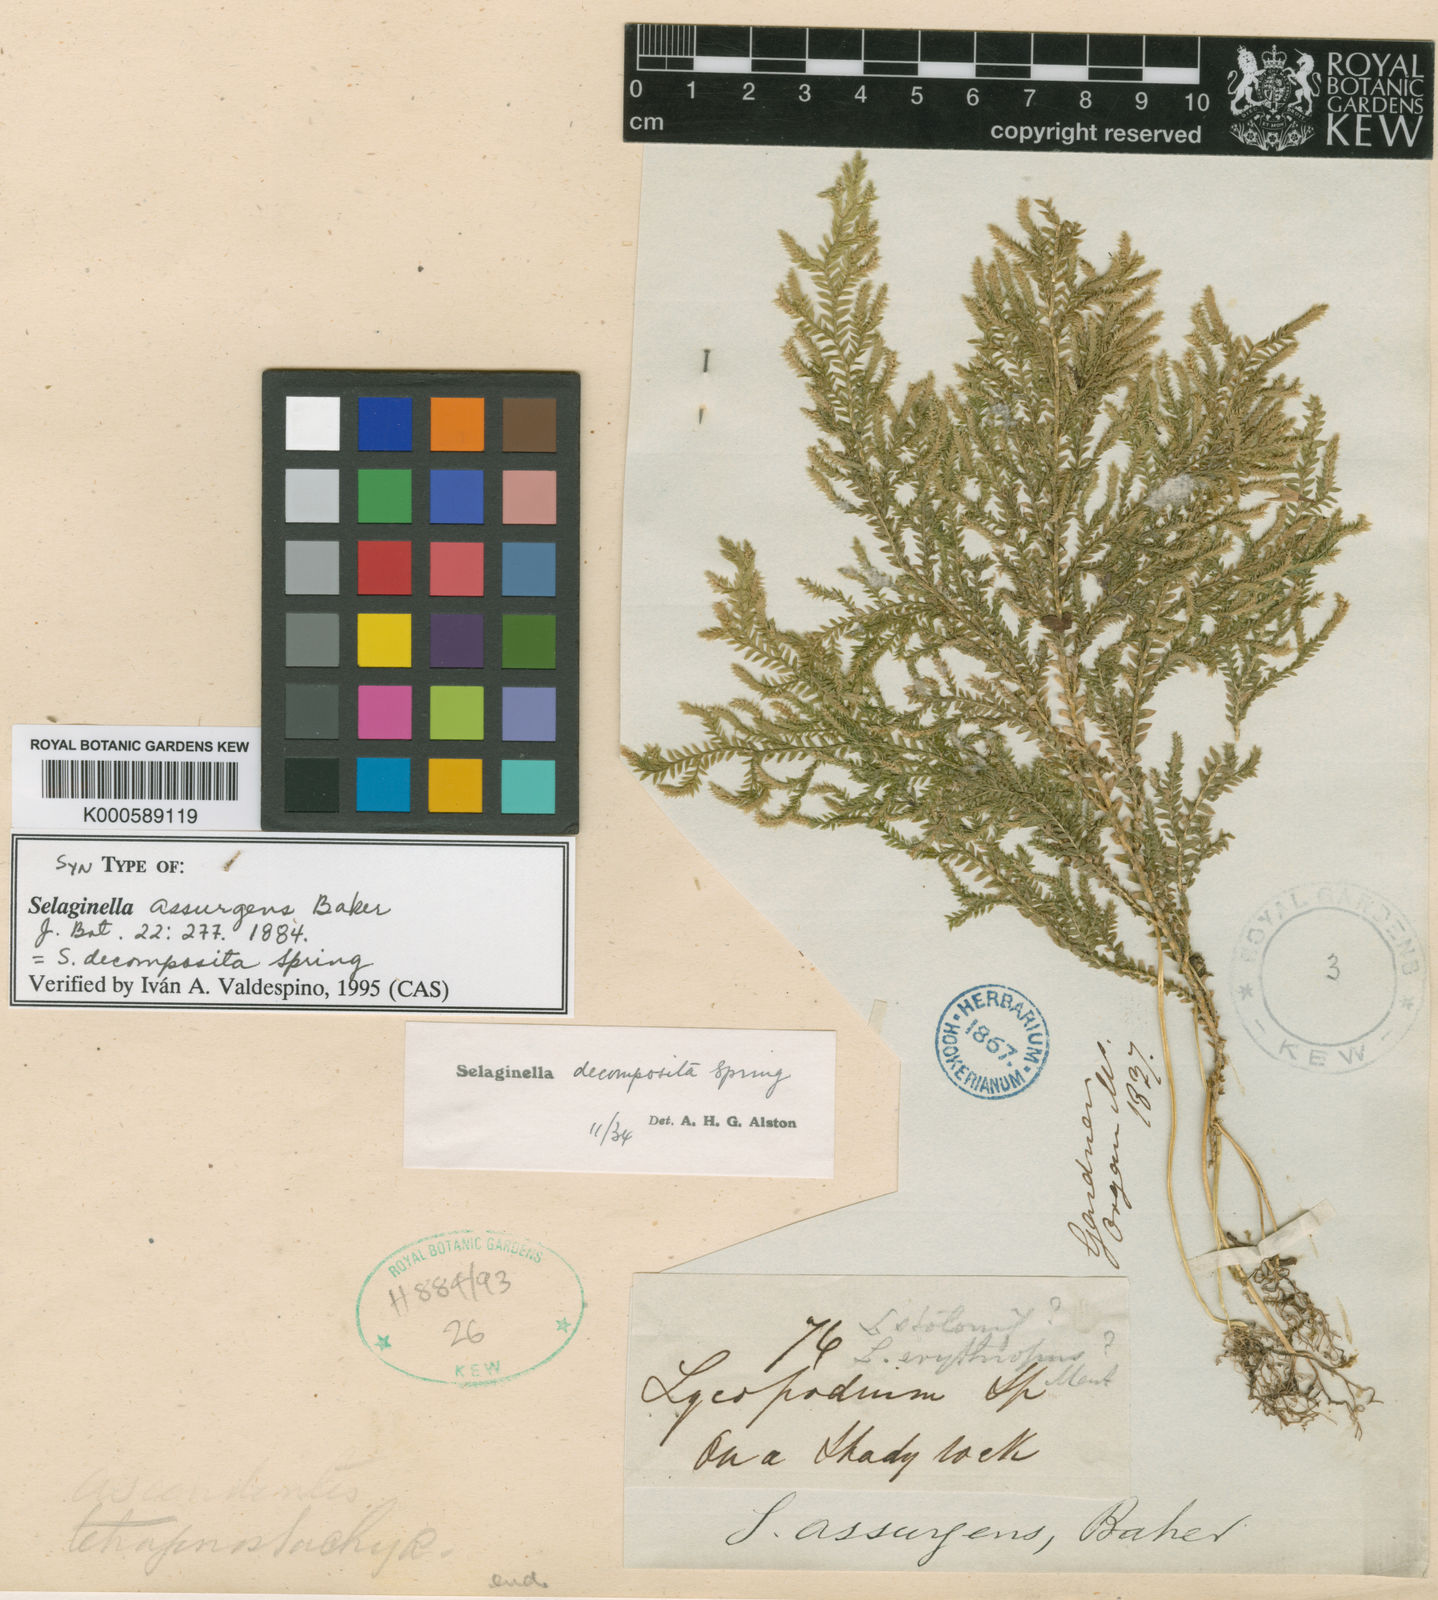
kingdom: Plantae
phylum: Tracheophyta
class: Lycopodiopsida
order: Selaginellales
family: Selaginellaceae
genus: Selaginella
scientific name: Selaginella decomposita
